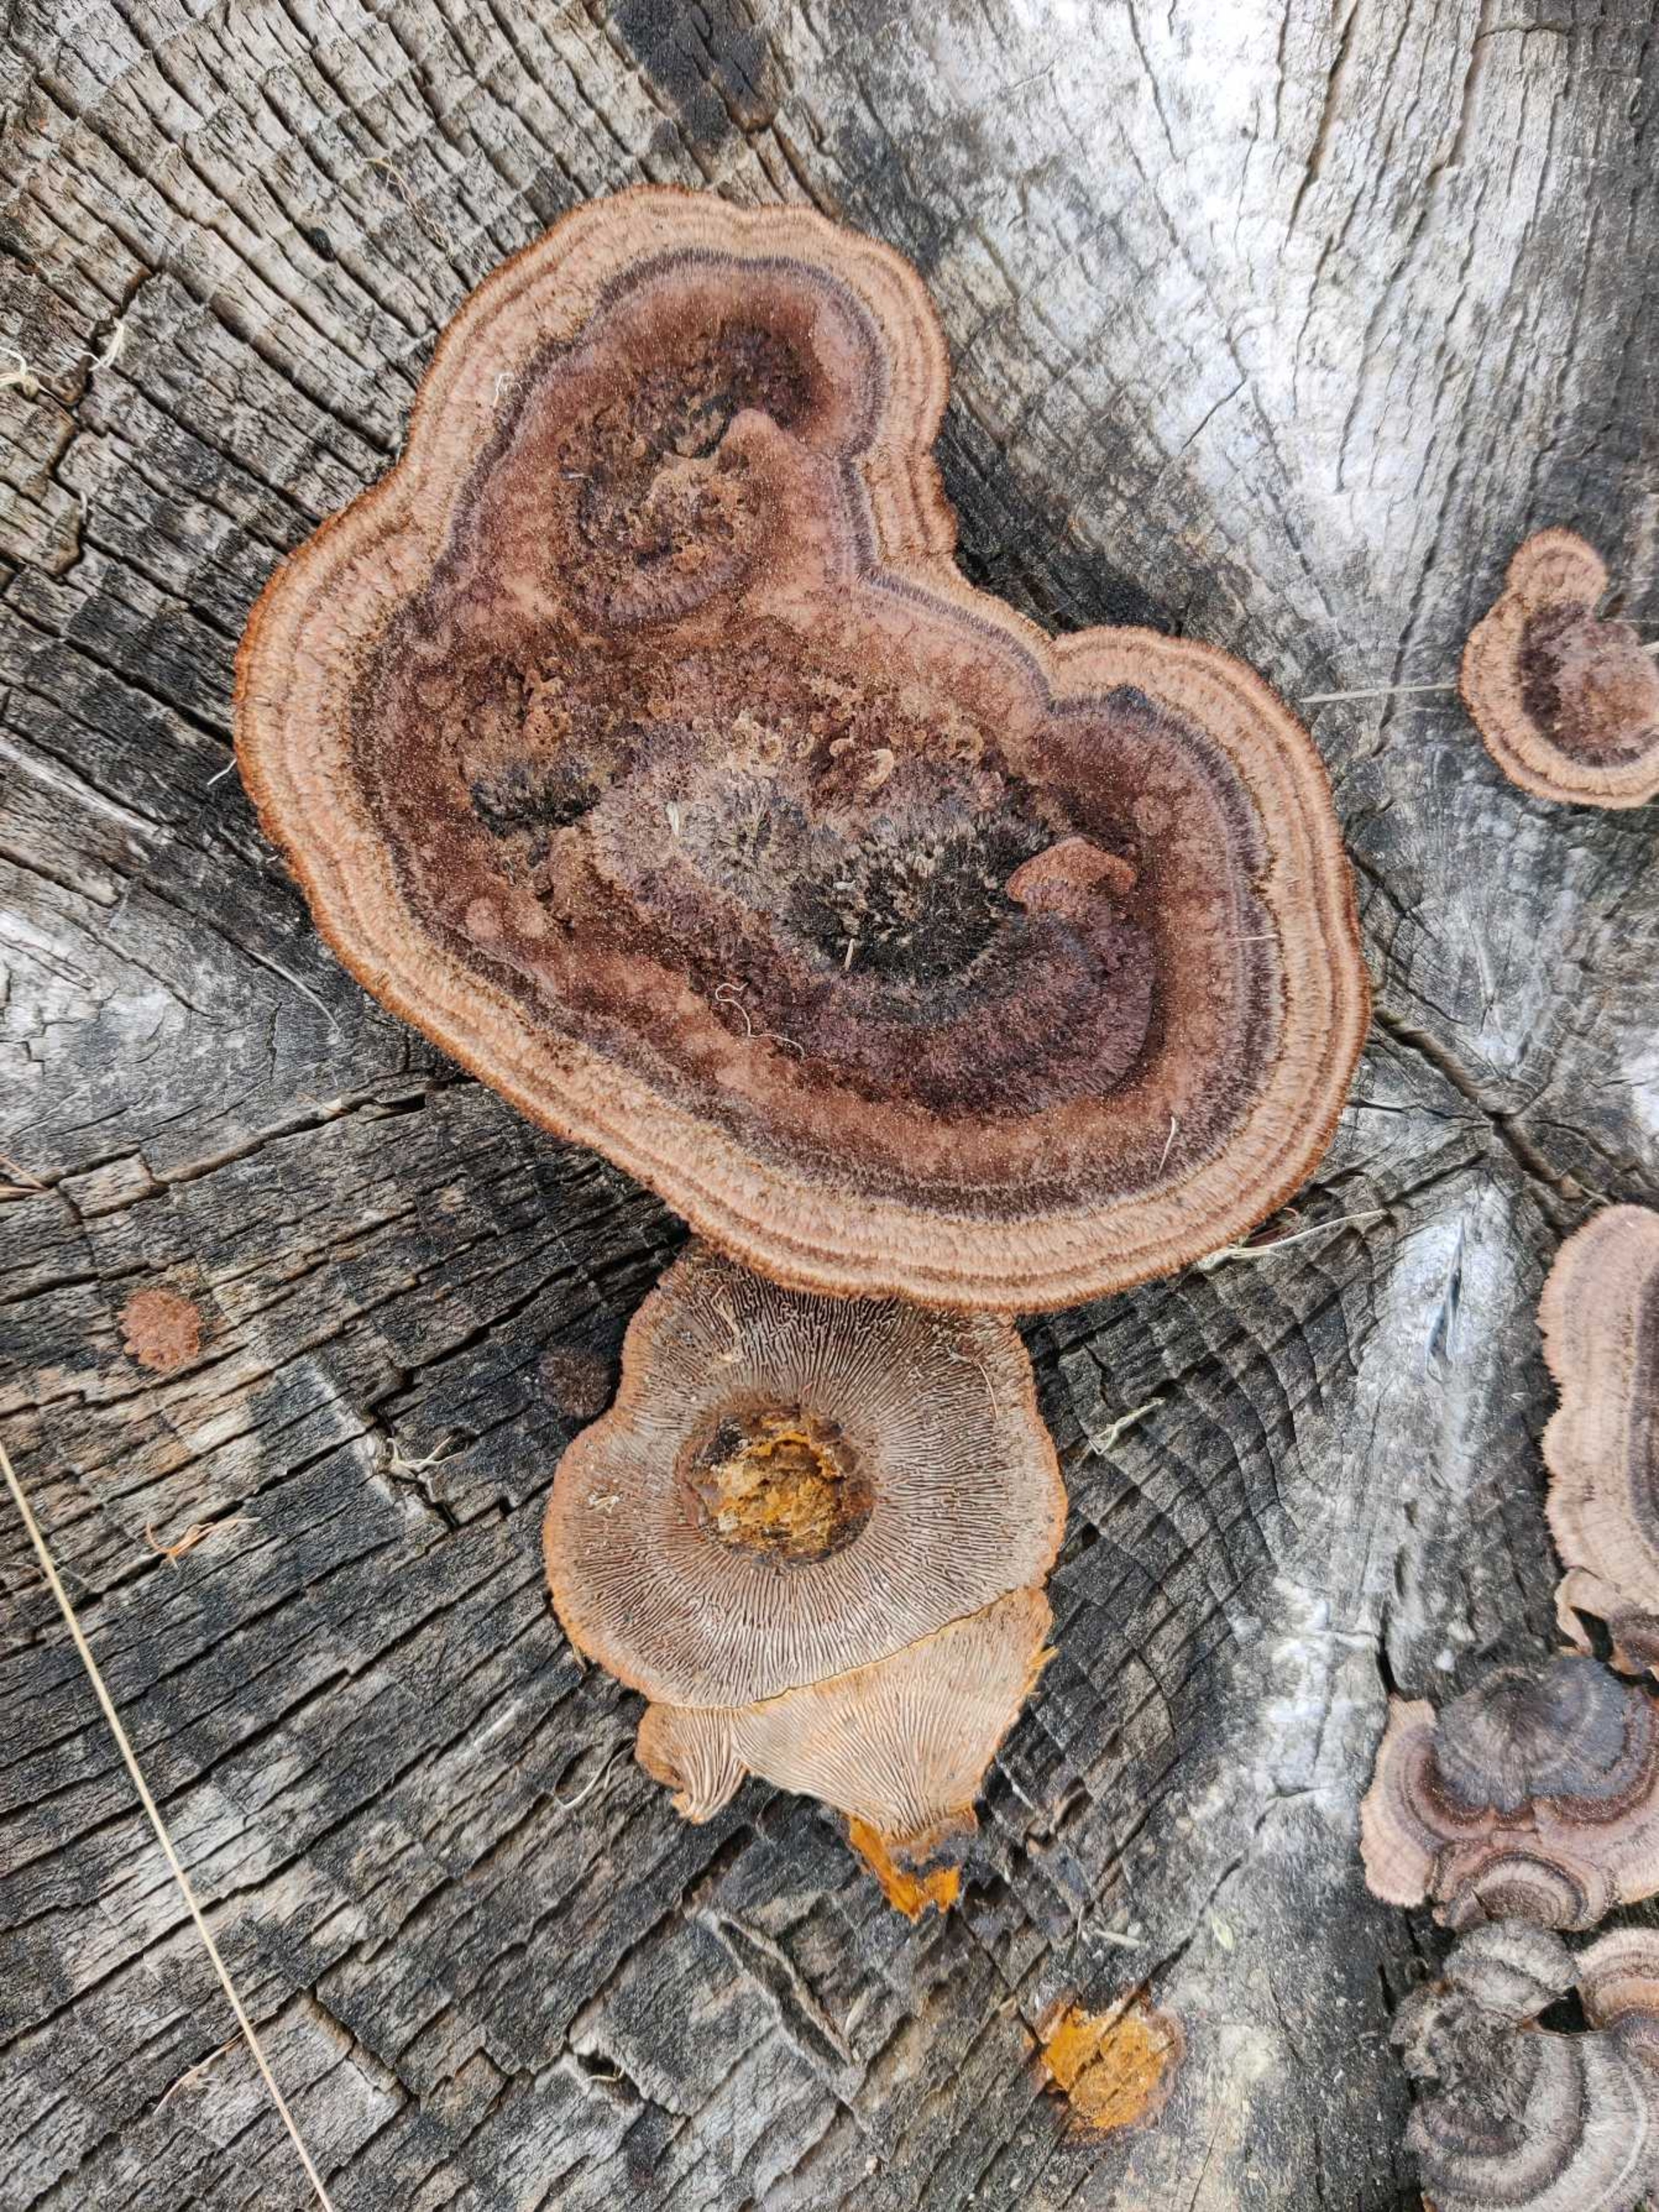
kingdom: Fungi
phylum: Basidiomycota
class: Agaricomycetes
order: Gloeophyllales
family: Gloeophyllaceae
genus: Gloeophyllum
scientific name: Gloeophyllum sepiarium
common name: Fyrre-korkhat
